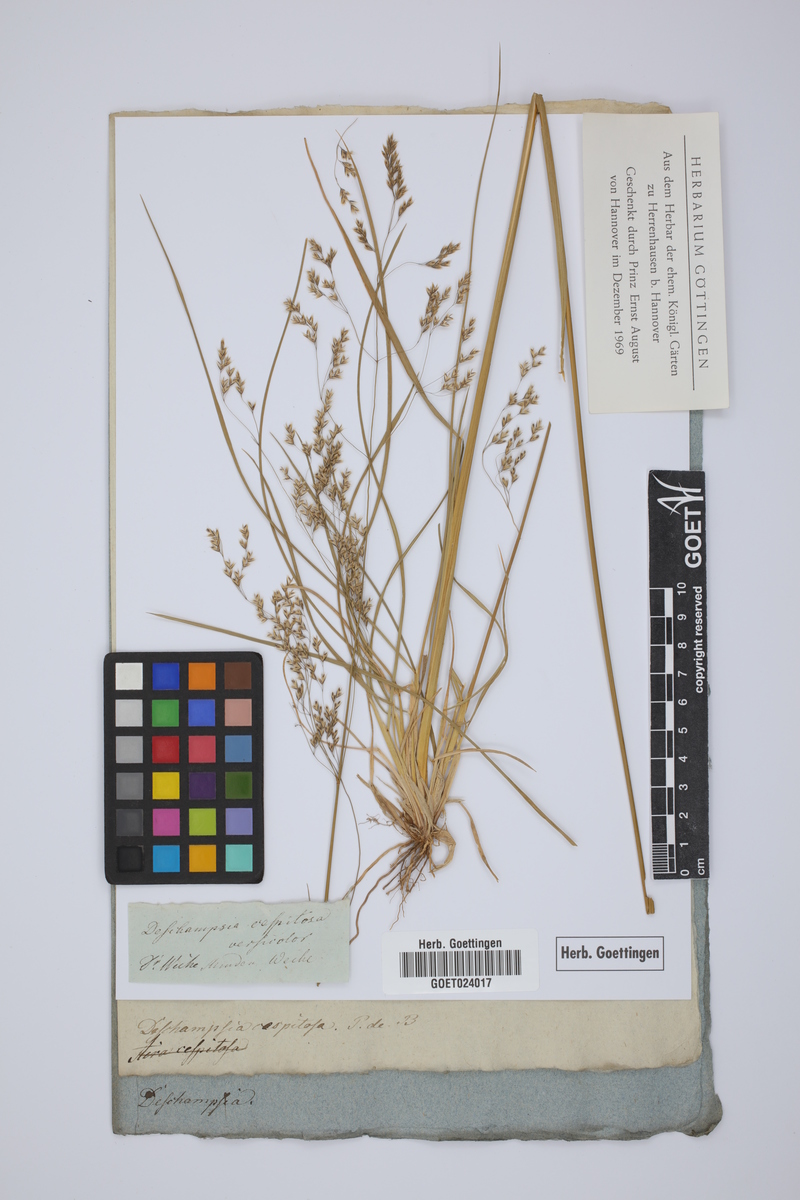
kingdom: Plantae
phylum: Tracheophyta
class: Liliopsida
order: Poales
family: Poaceae
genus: Deschampsia
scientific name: Deschampsia cespitosa
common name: Tufted hair-grass
